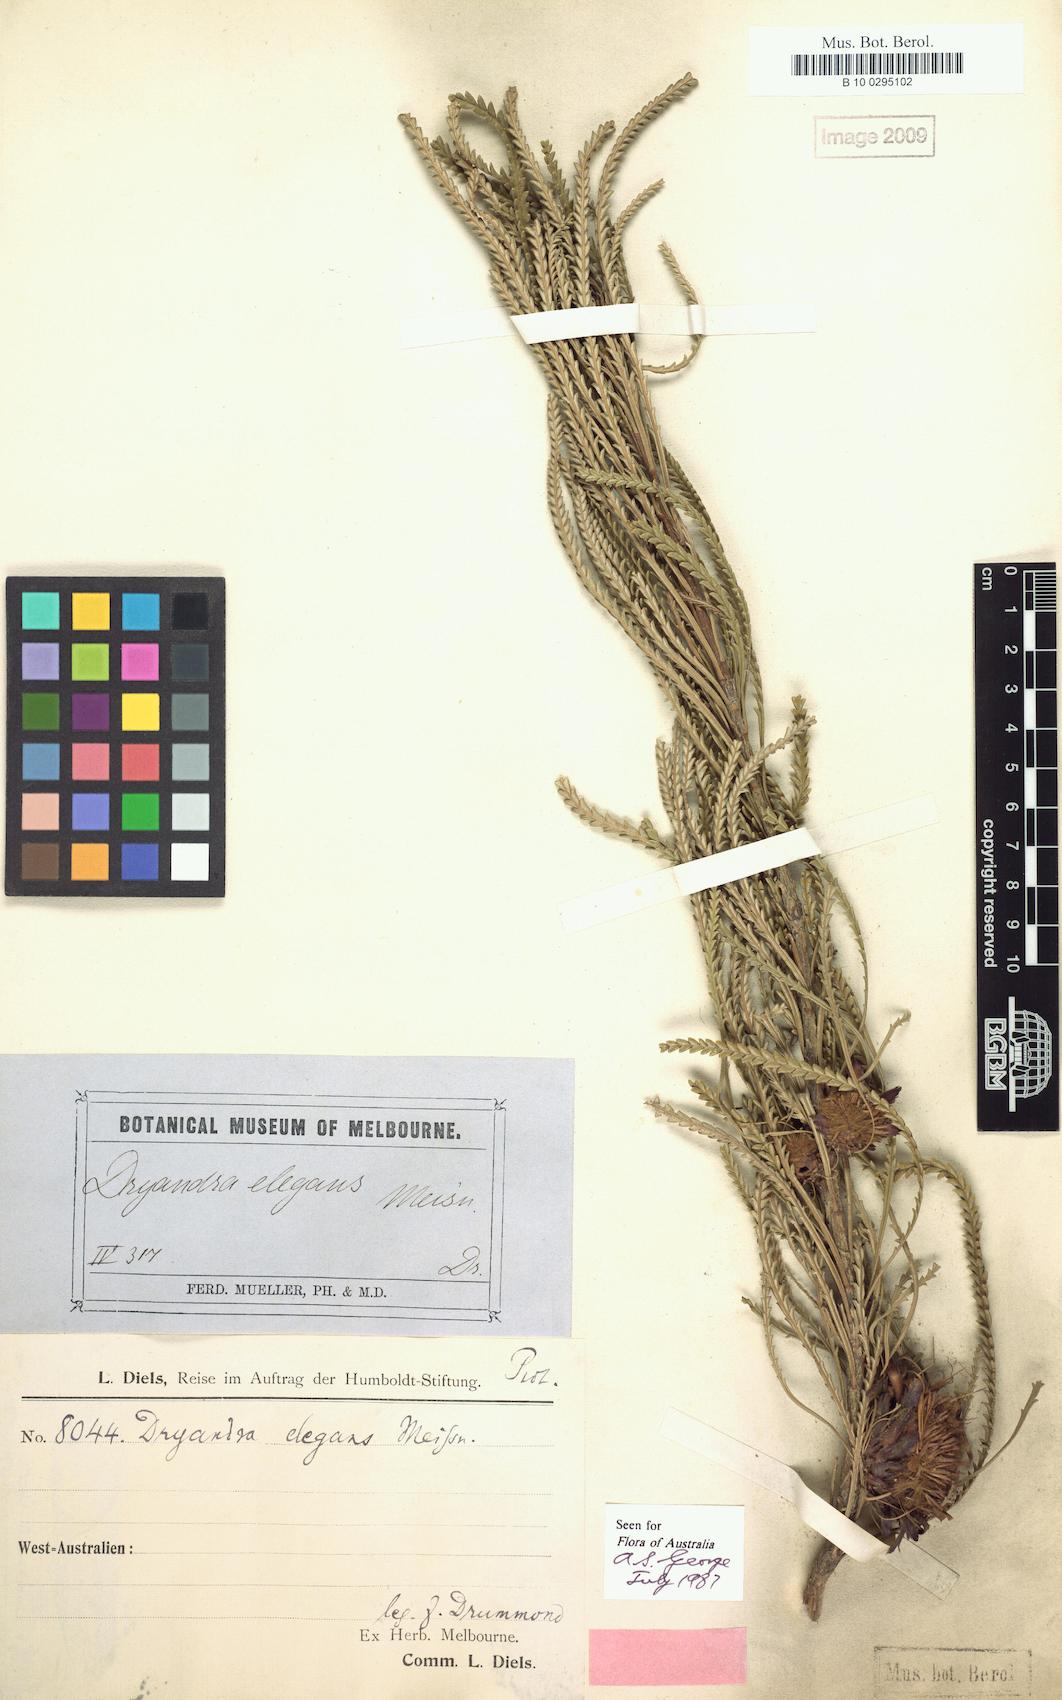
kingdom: Plantae
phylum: Tracheophyta
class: Magnoliopsida
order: Proteales
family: Proteaceae
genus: Banksia
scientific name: Banksia tenuis
